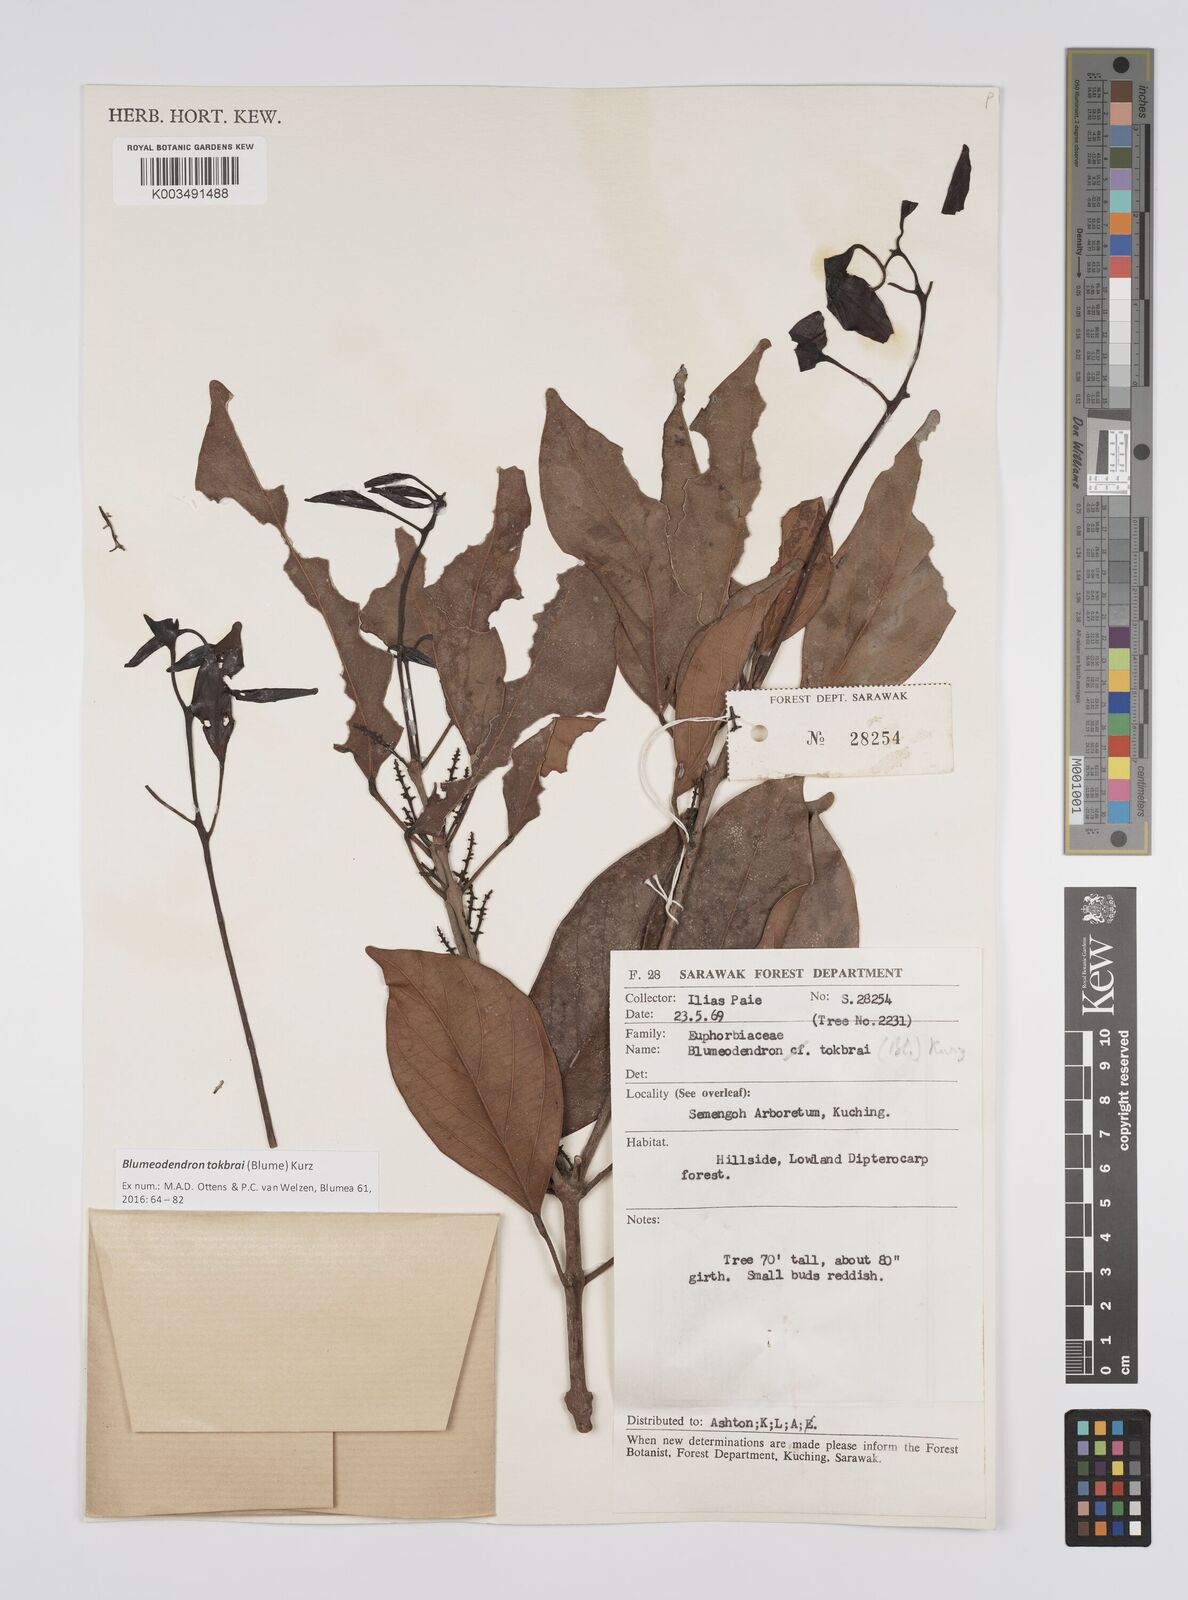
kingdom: Plantae
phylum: Tracheophyta
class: Magnoliopsida
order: Malpighiales
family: Euphorbiaceae
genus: Blumeodendron
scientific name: Blumeodendron tokbrai
